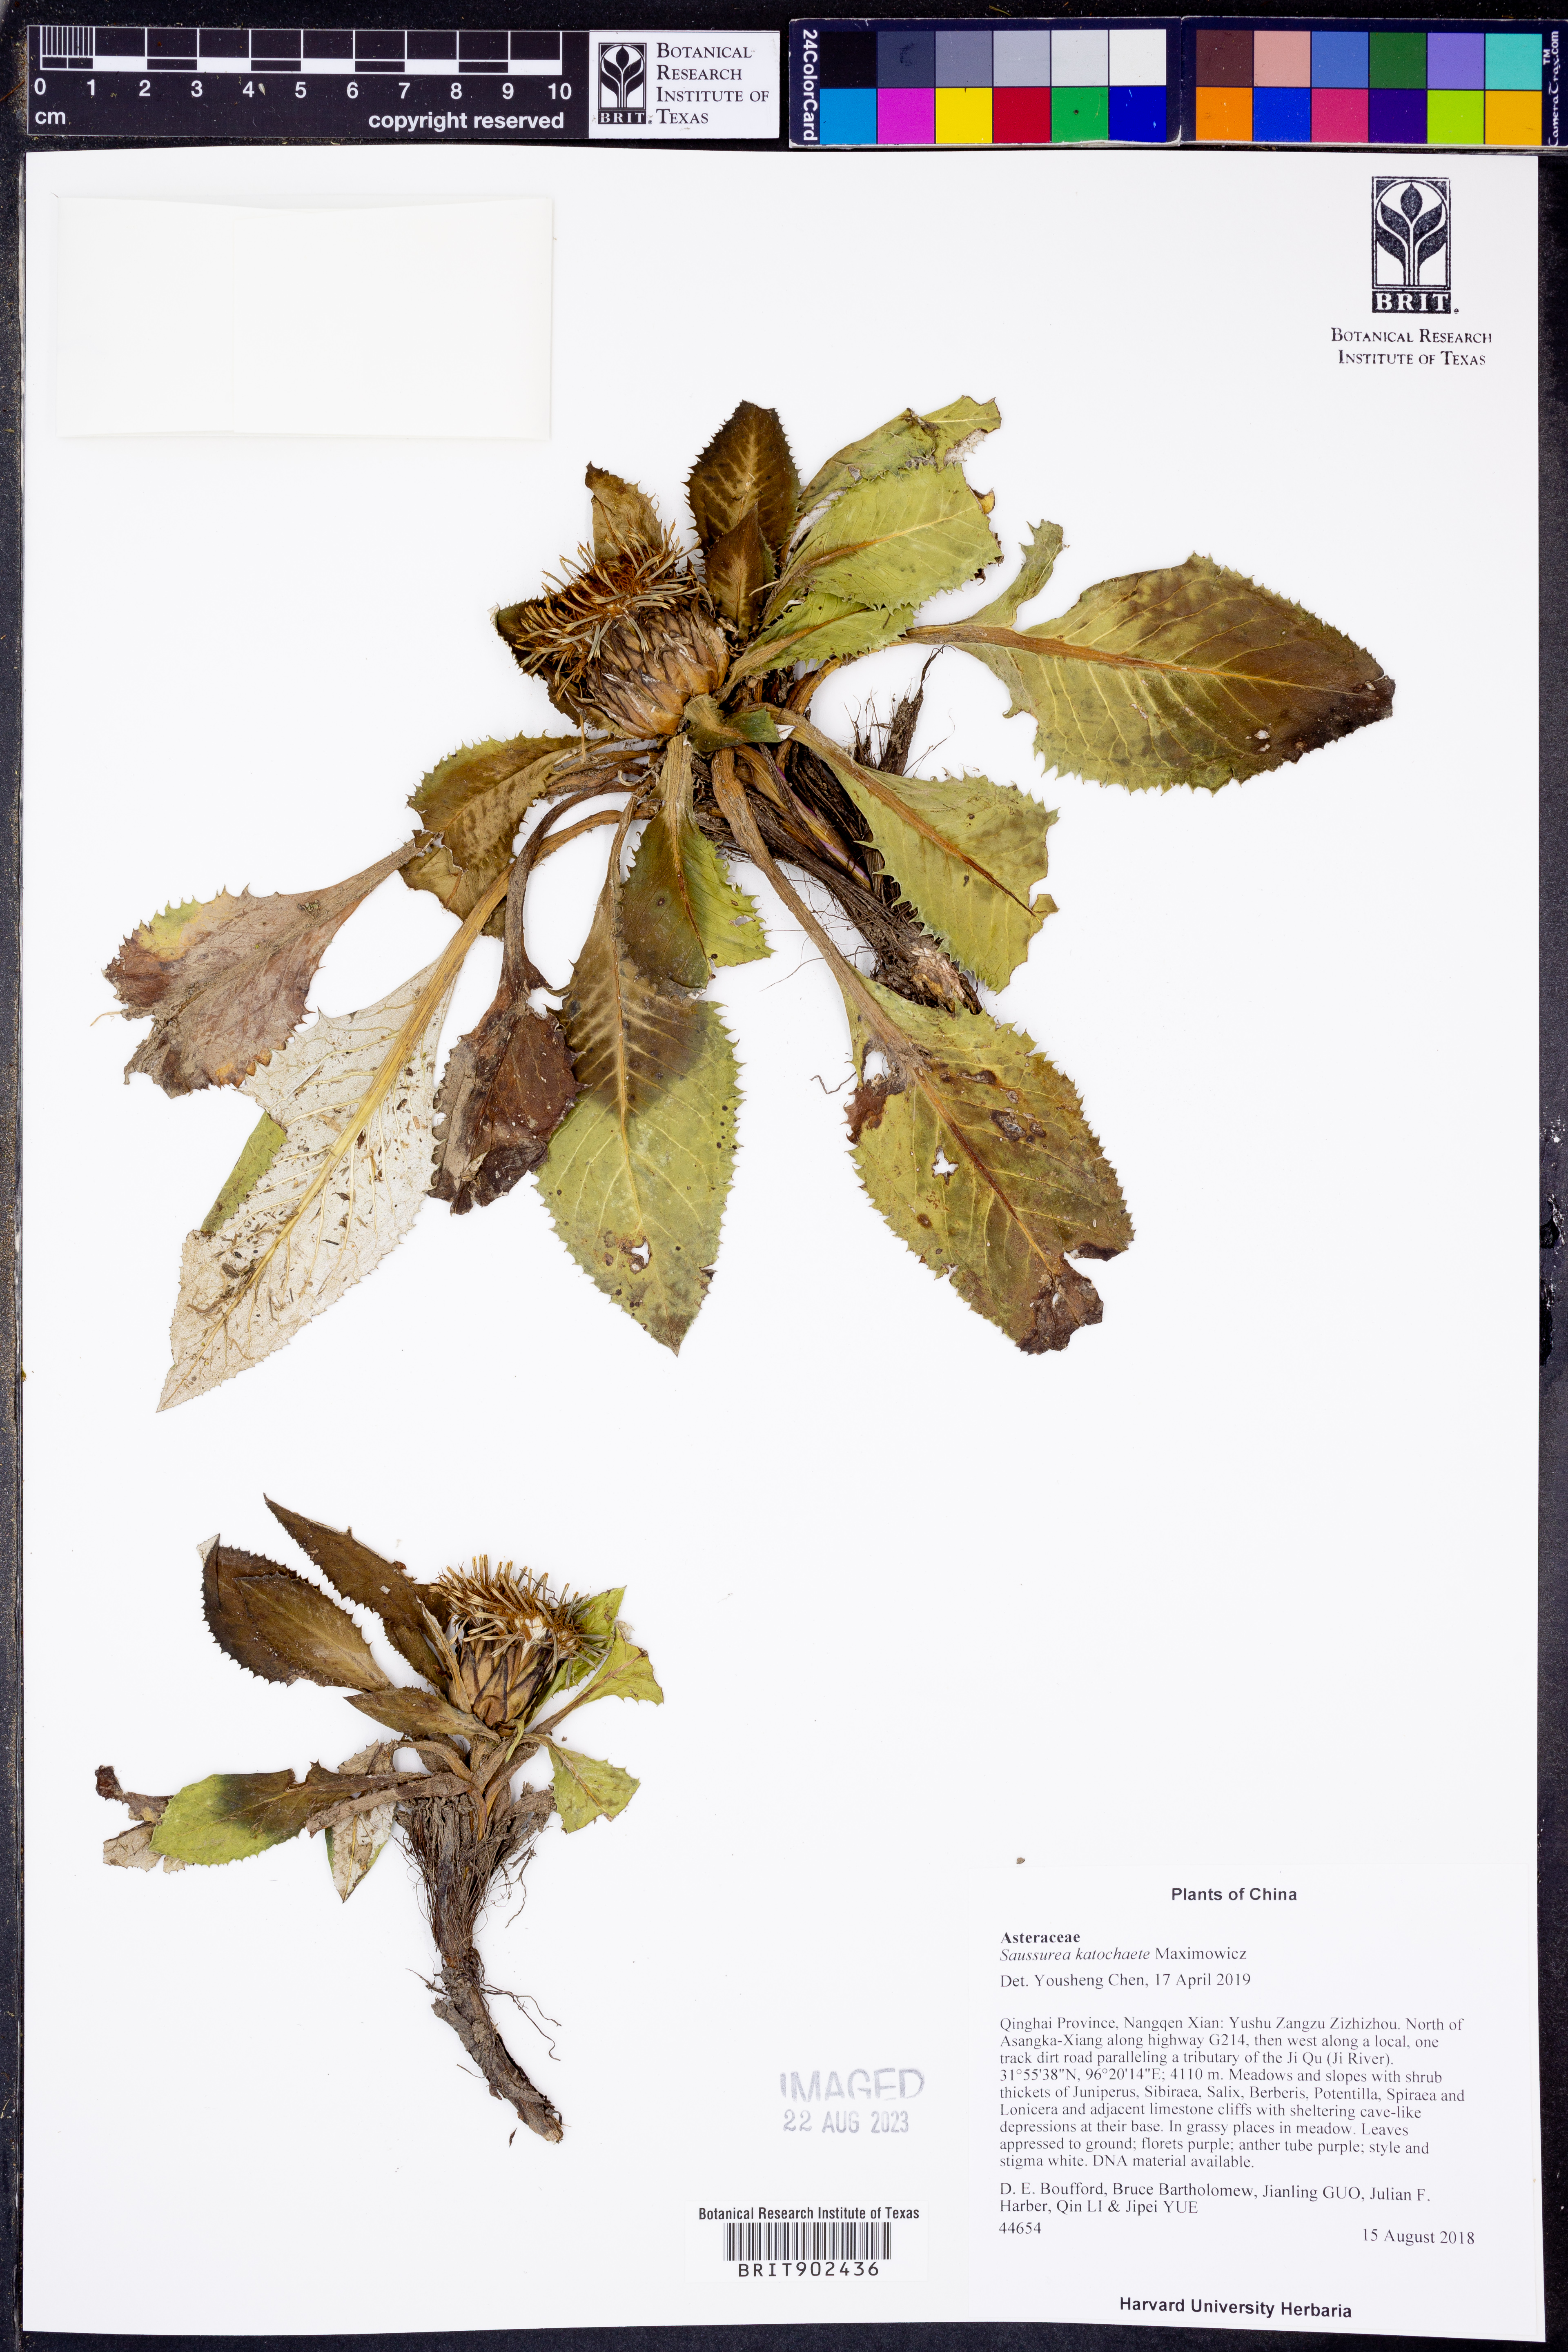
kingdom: Plantae
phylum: Tracheophyta
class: Magnoliopsida
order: Asterales
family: Asteraceae
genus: Saussurea
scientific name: Saussurea
